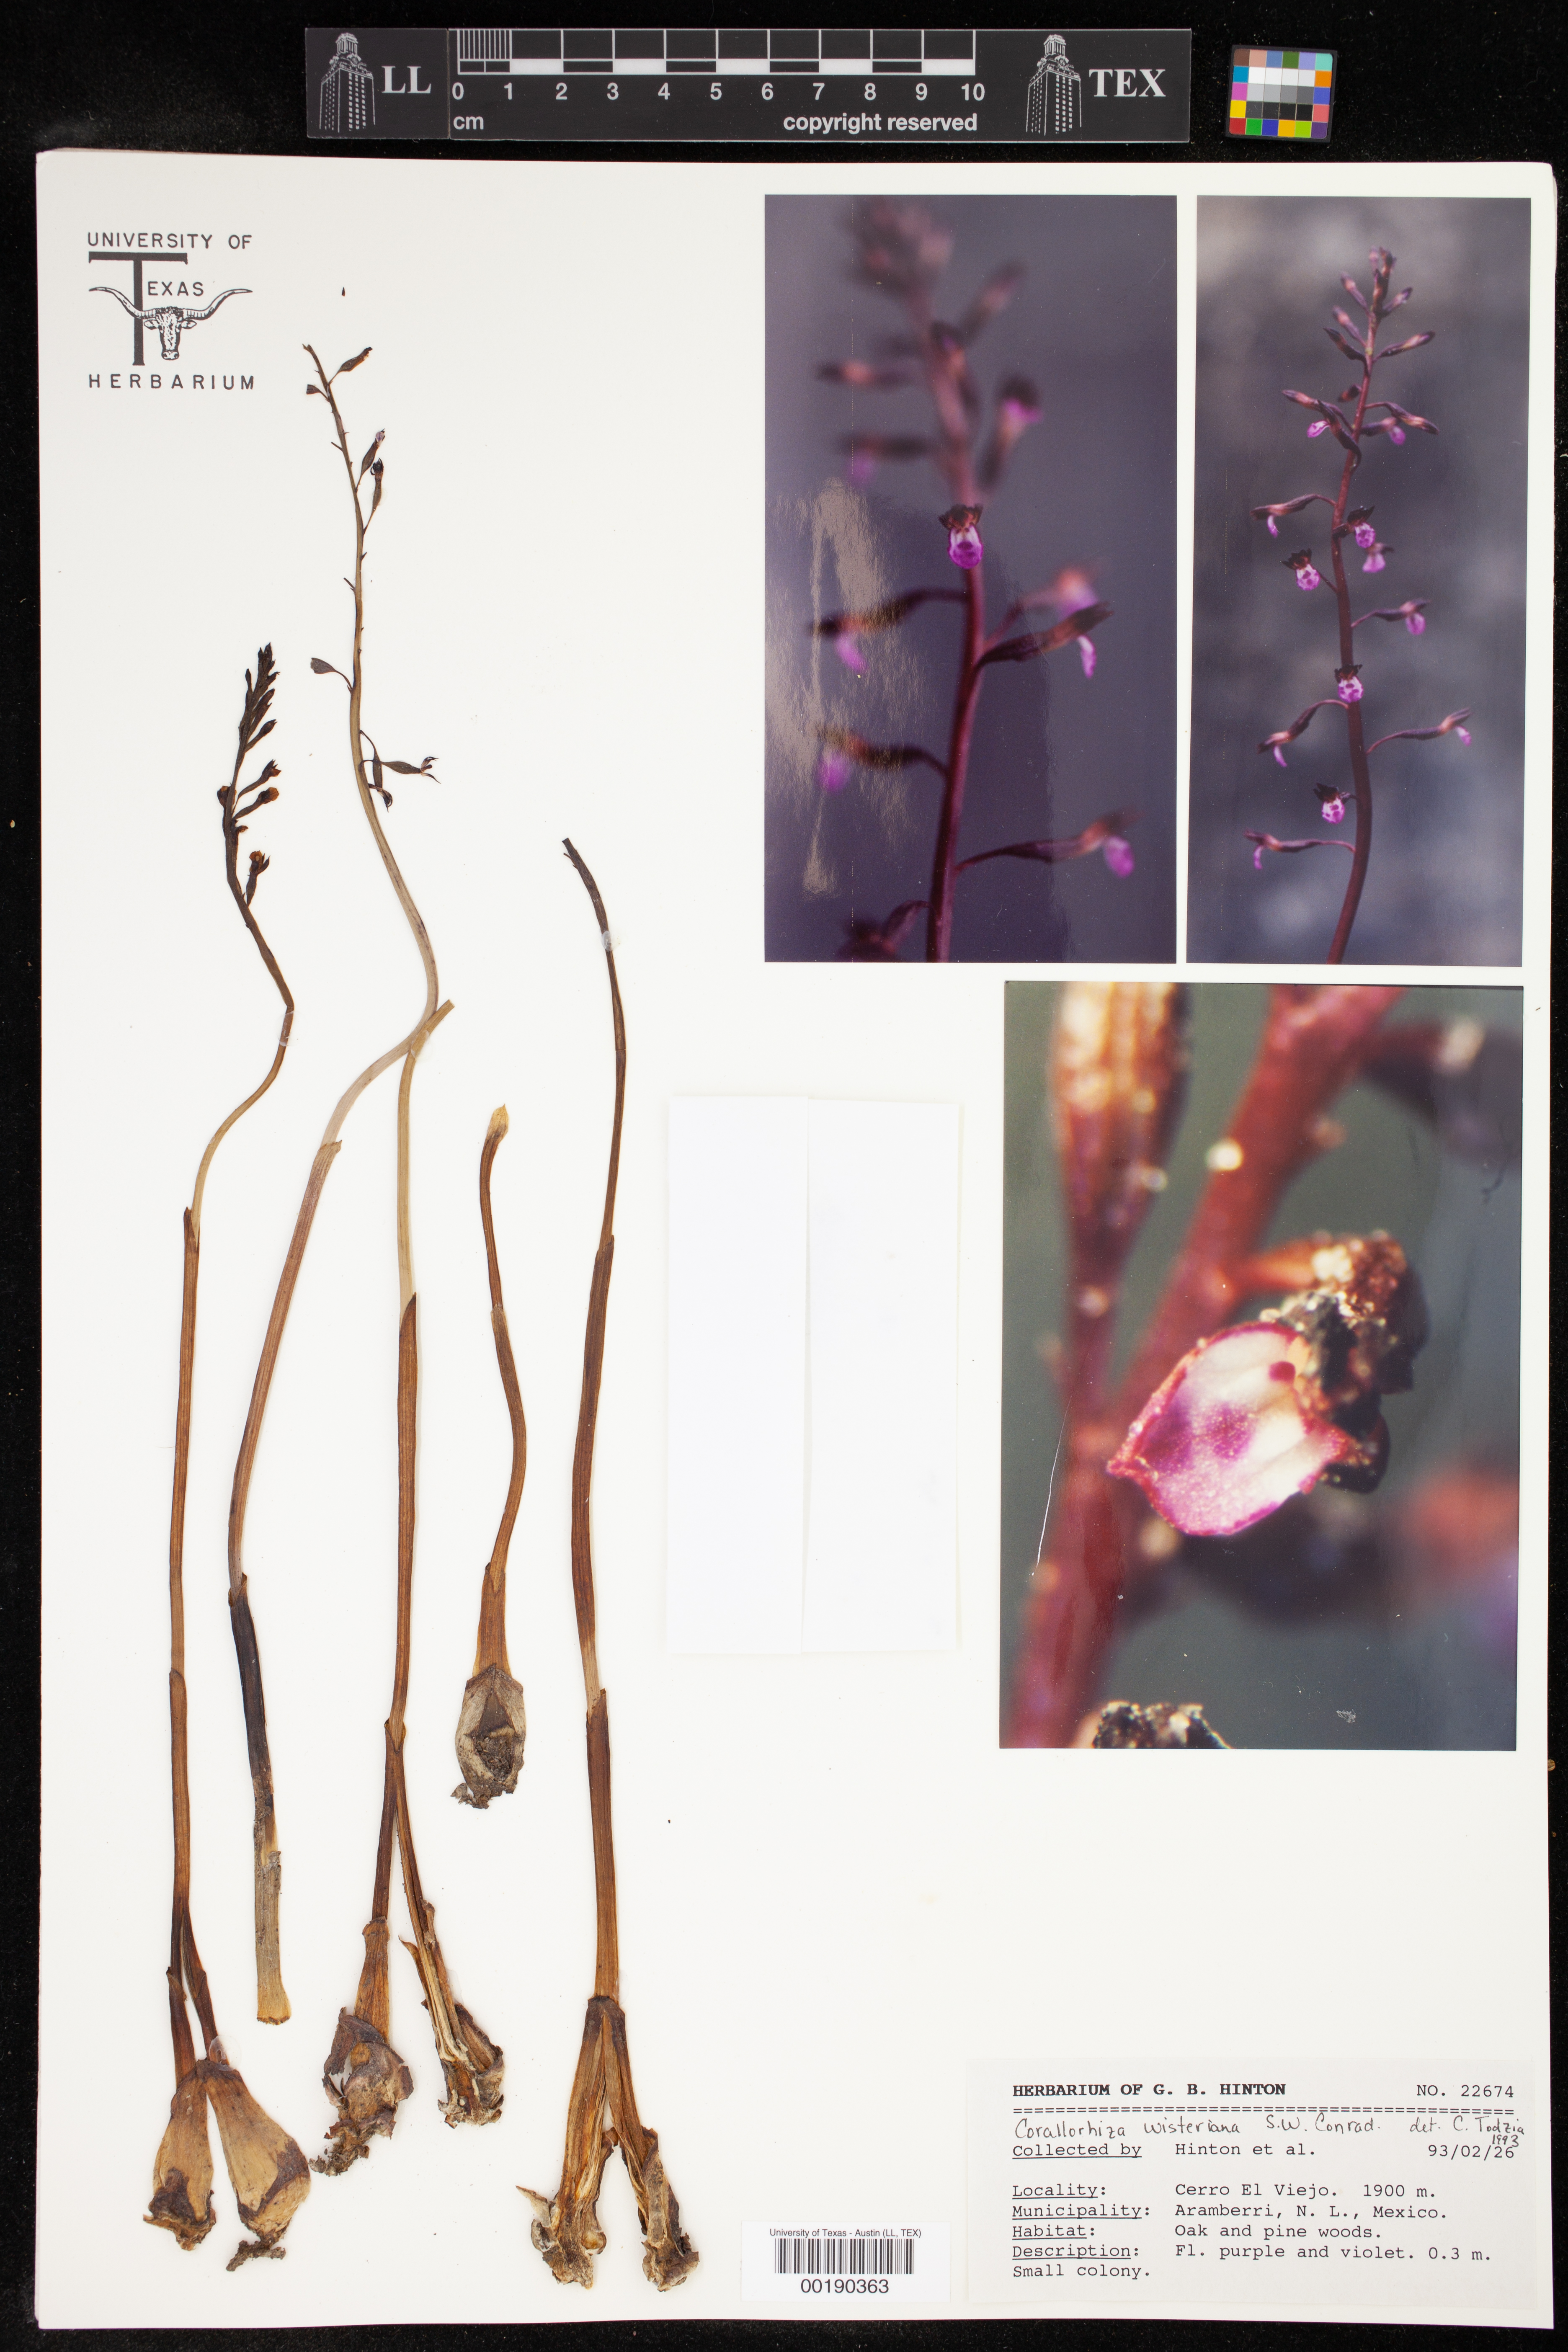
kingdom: Plantae
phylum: Tracheophyta
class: Liliopsida
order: Asparagales
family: Orchidaceae
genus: Corallorhiza
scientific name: Corallorhiza wisteriana
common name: Spring coralroot
